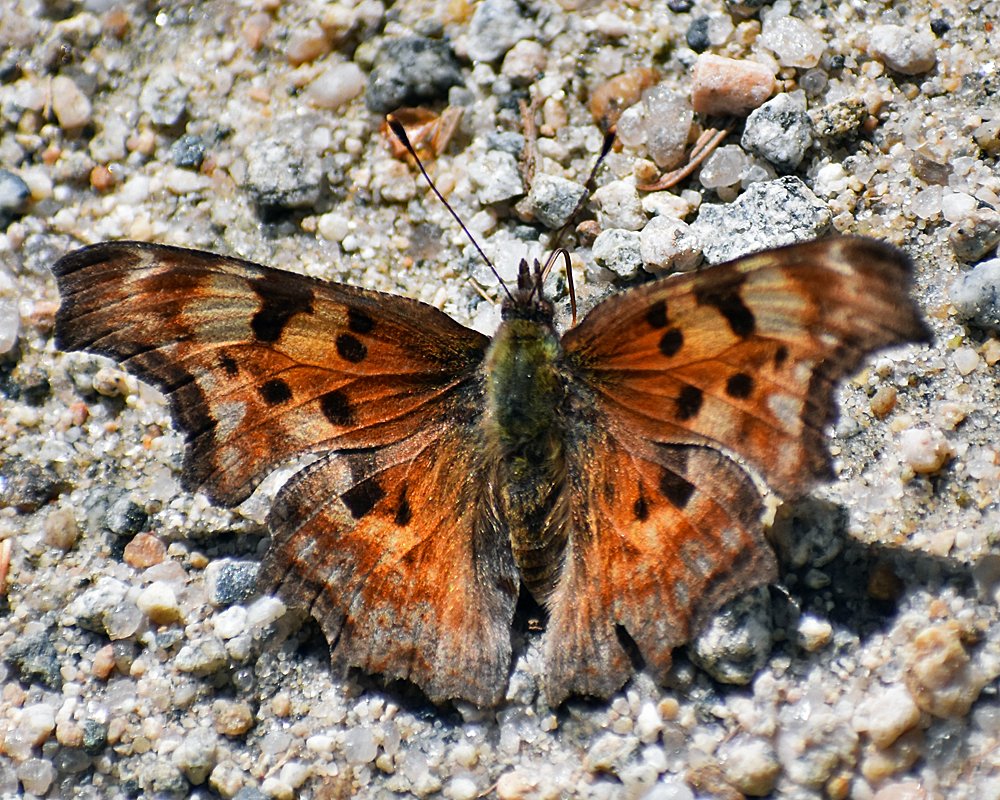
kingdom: Animalia
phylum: Arthropoda
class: Insecta
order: Lepidoptera
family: Nymphalidae
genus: Polygonia
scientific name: Polygonia gracilis
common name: Hoary Comma
